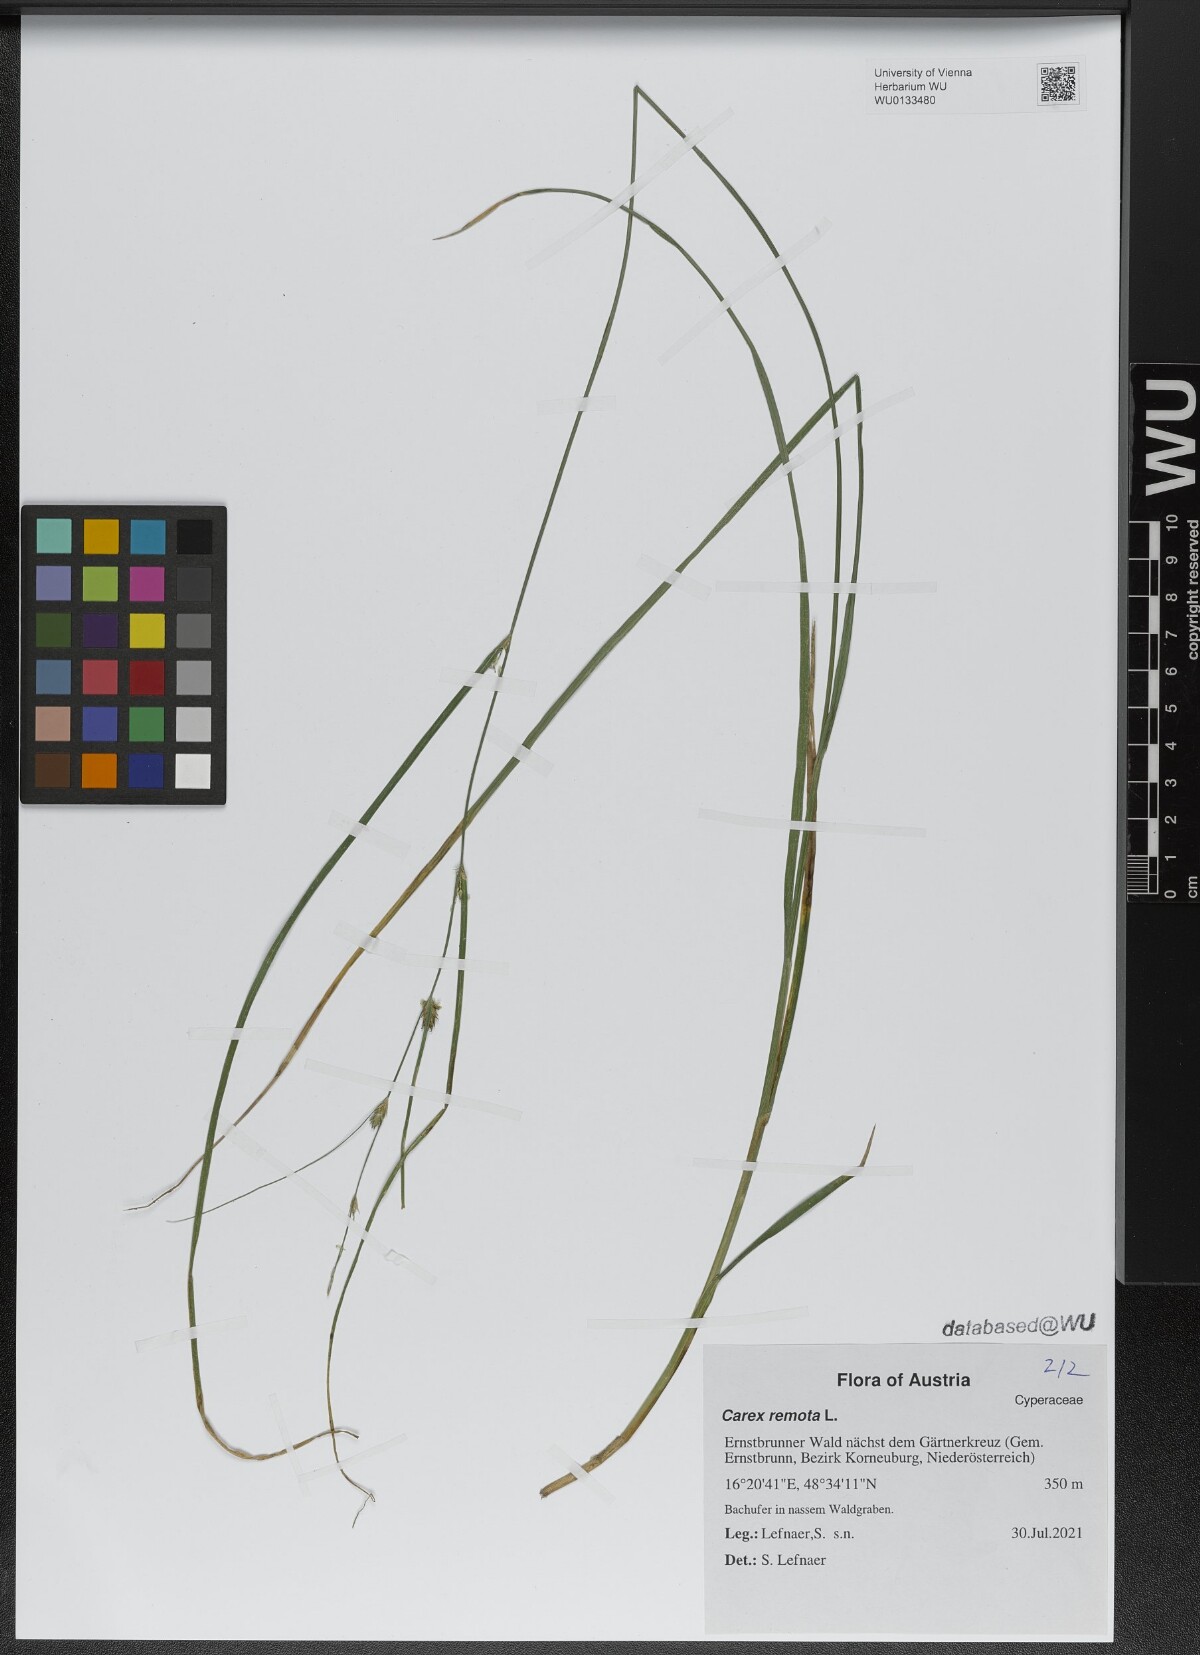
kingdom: Plantae
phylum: Tracheophyta
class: Liliopsida
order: Poales
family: Cyperaceae
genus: Carex
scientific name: Carex remota
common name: Remote sedge
